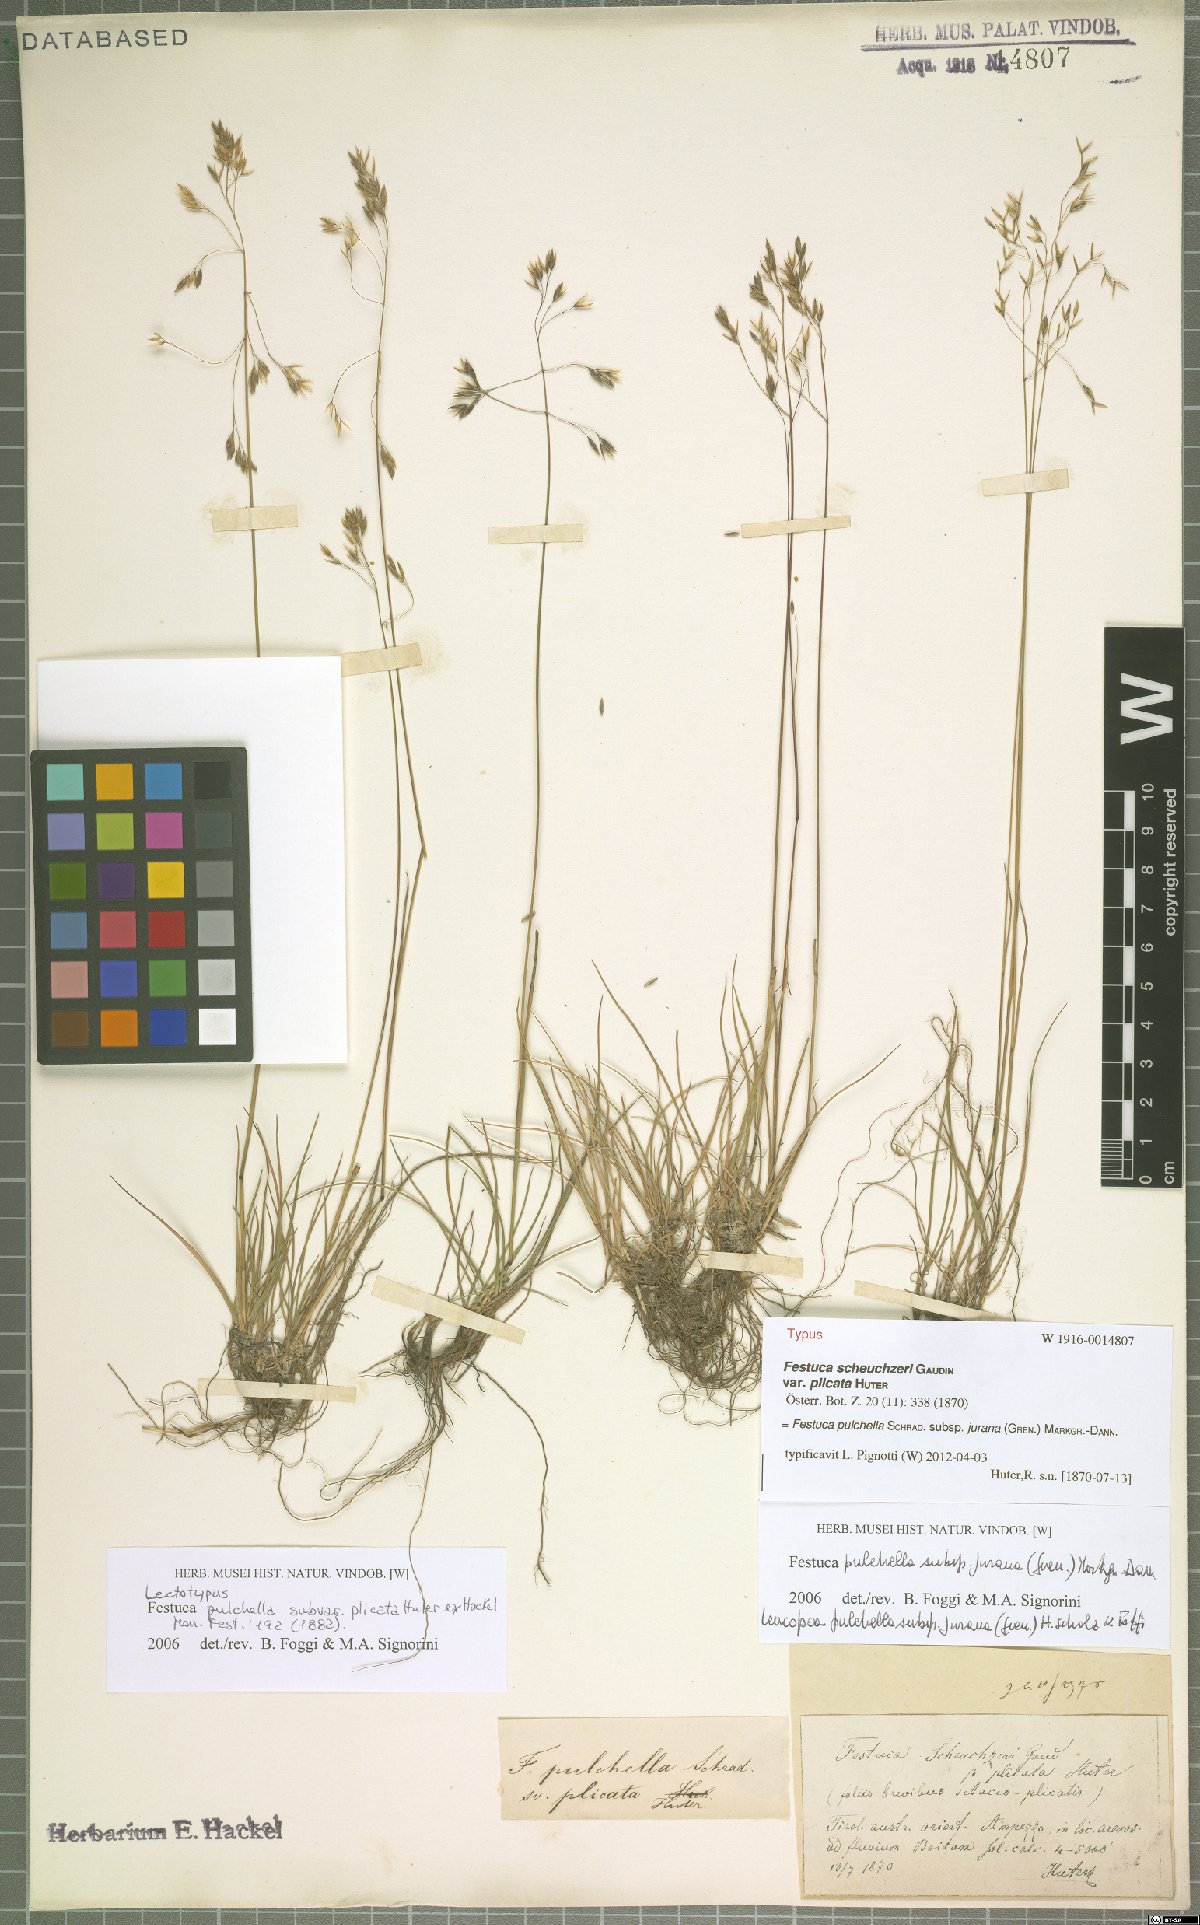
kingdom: Plantae
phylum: Tracheophyta
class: Liliopsida
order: Poales
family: Poaceae
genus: Festuca
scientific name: Festuca pulchella
